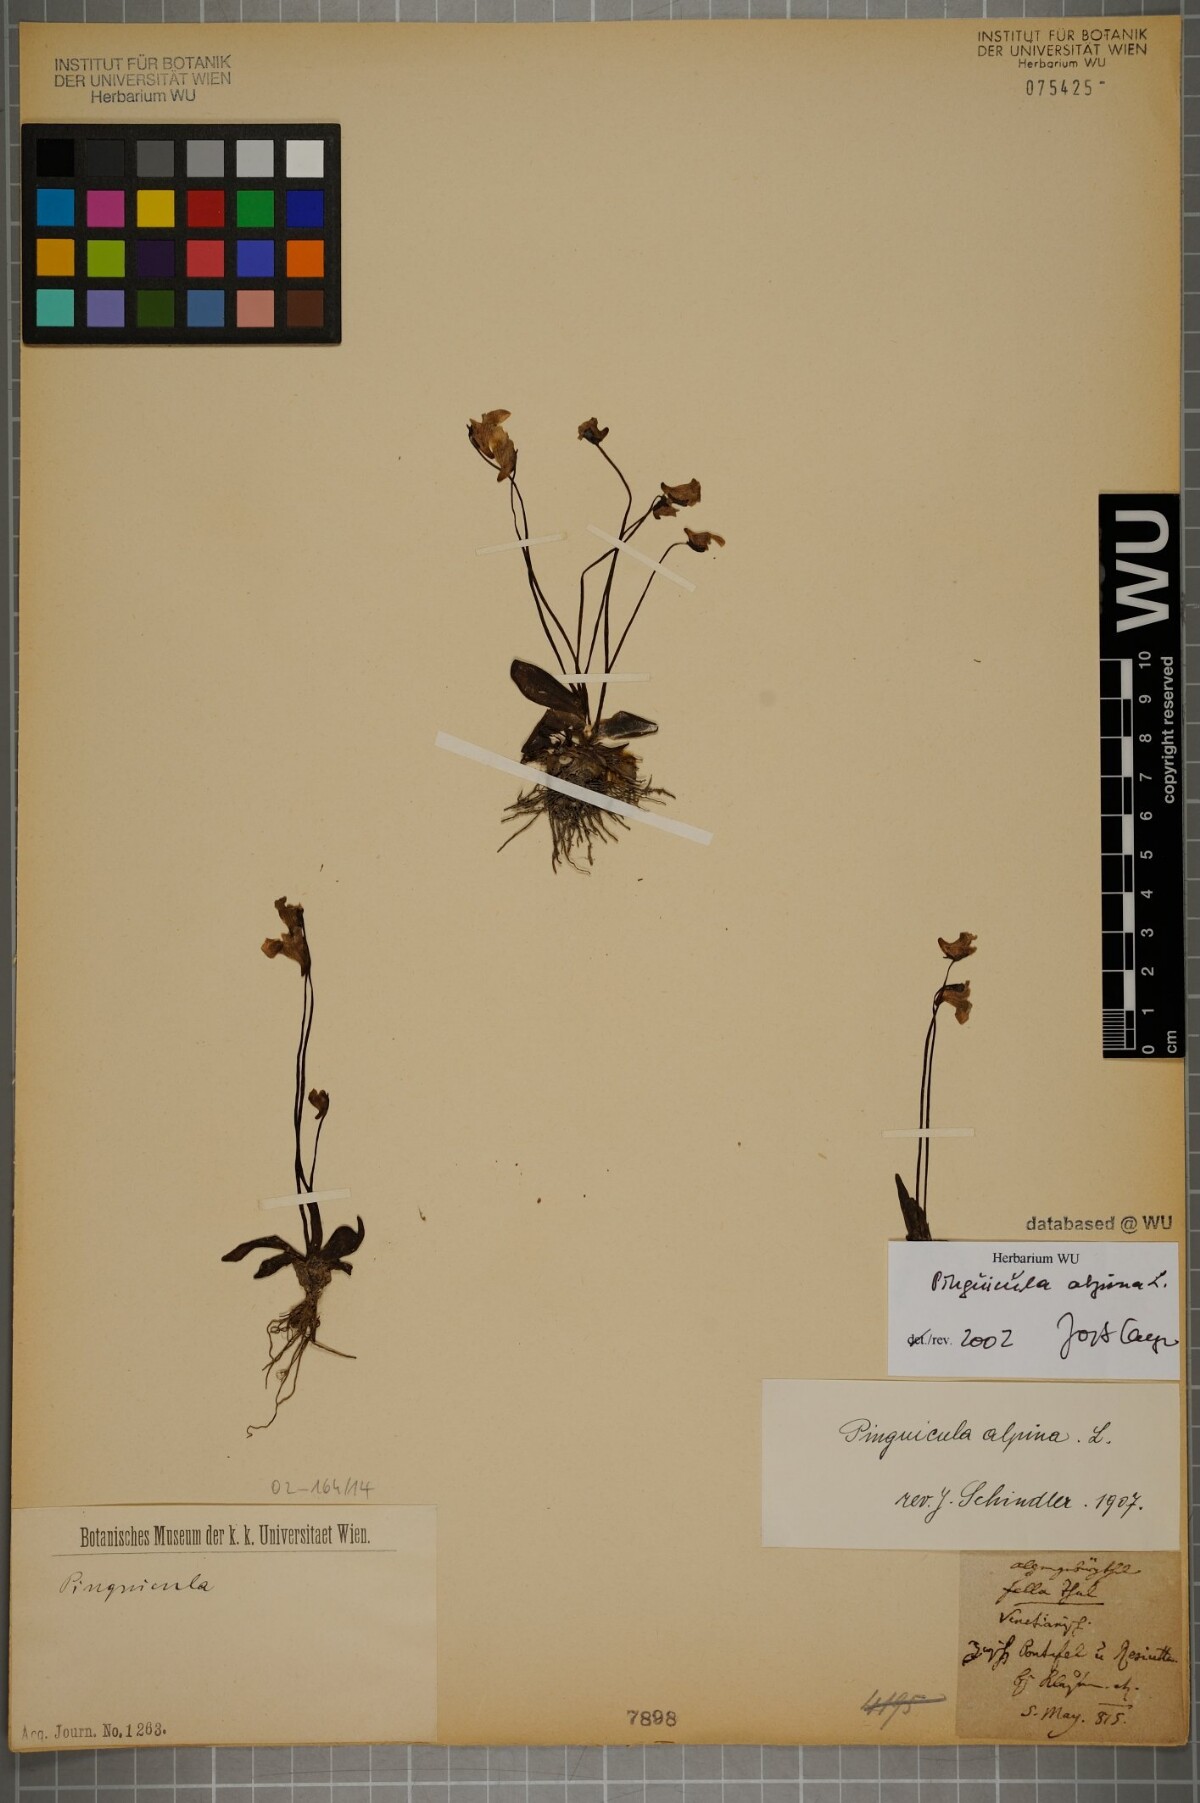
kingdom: Plantae
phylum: Tracheophyta
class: Magnoliopsida
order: Lamiales
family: Lentibulariaceae
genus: Pinguicula
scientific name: Pinguicula alpina
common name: Alpine butterwort
